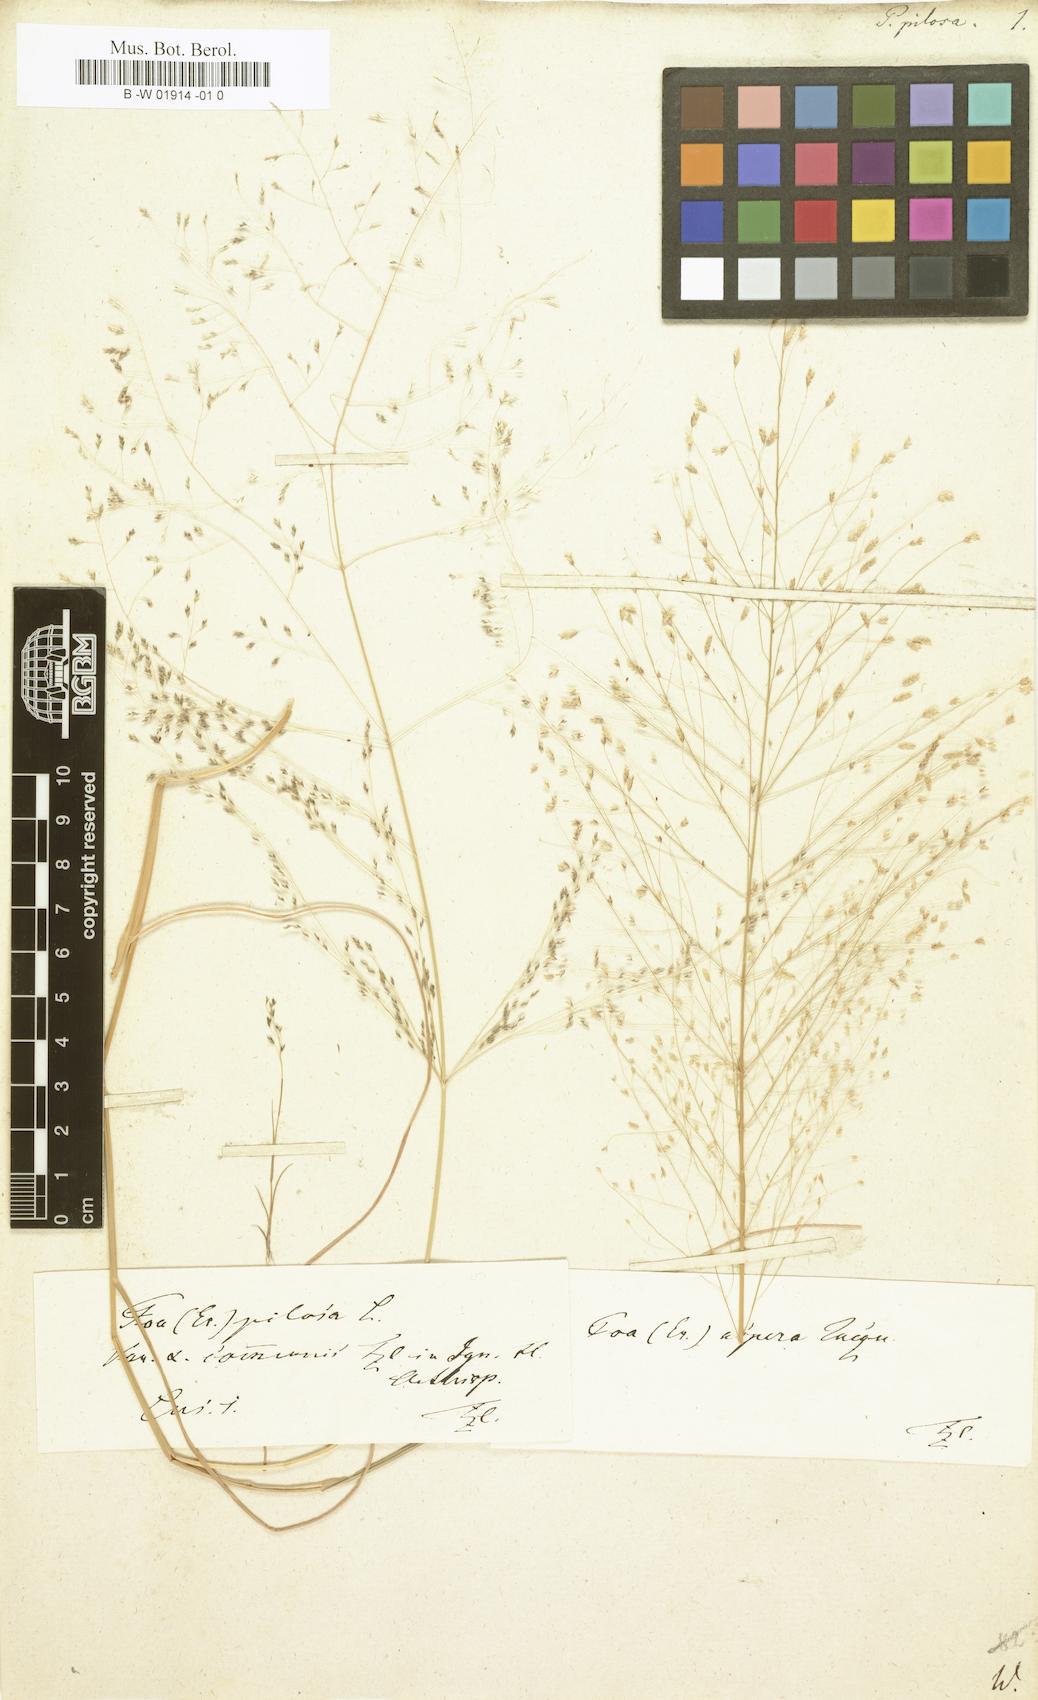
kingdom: Plantae
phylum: Tracheophyta
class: Liliopsida
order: Poales
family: Poaceae
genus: Eragrostis
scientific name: Eragrostis
